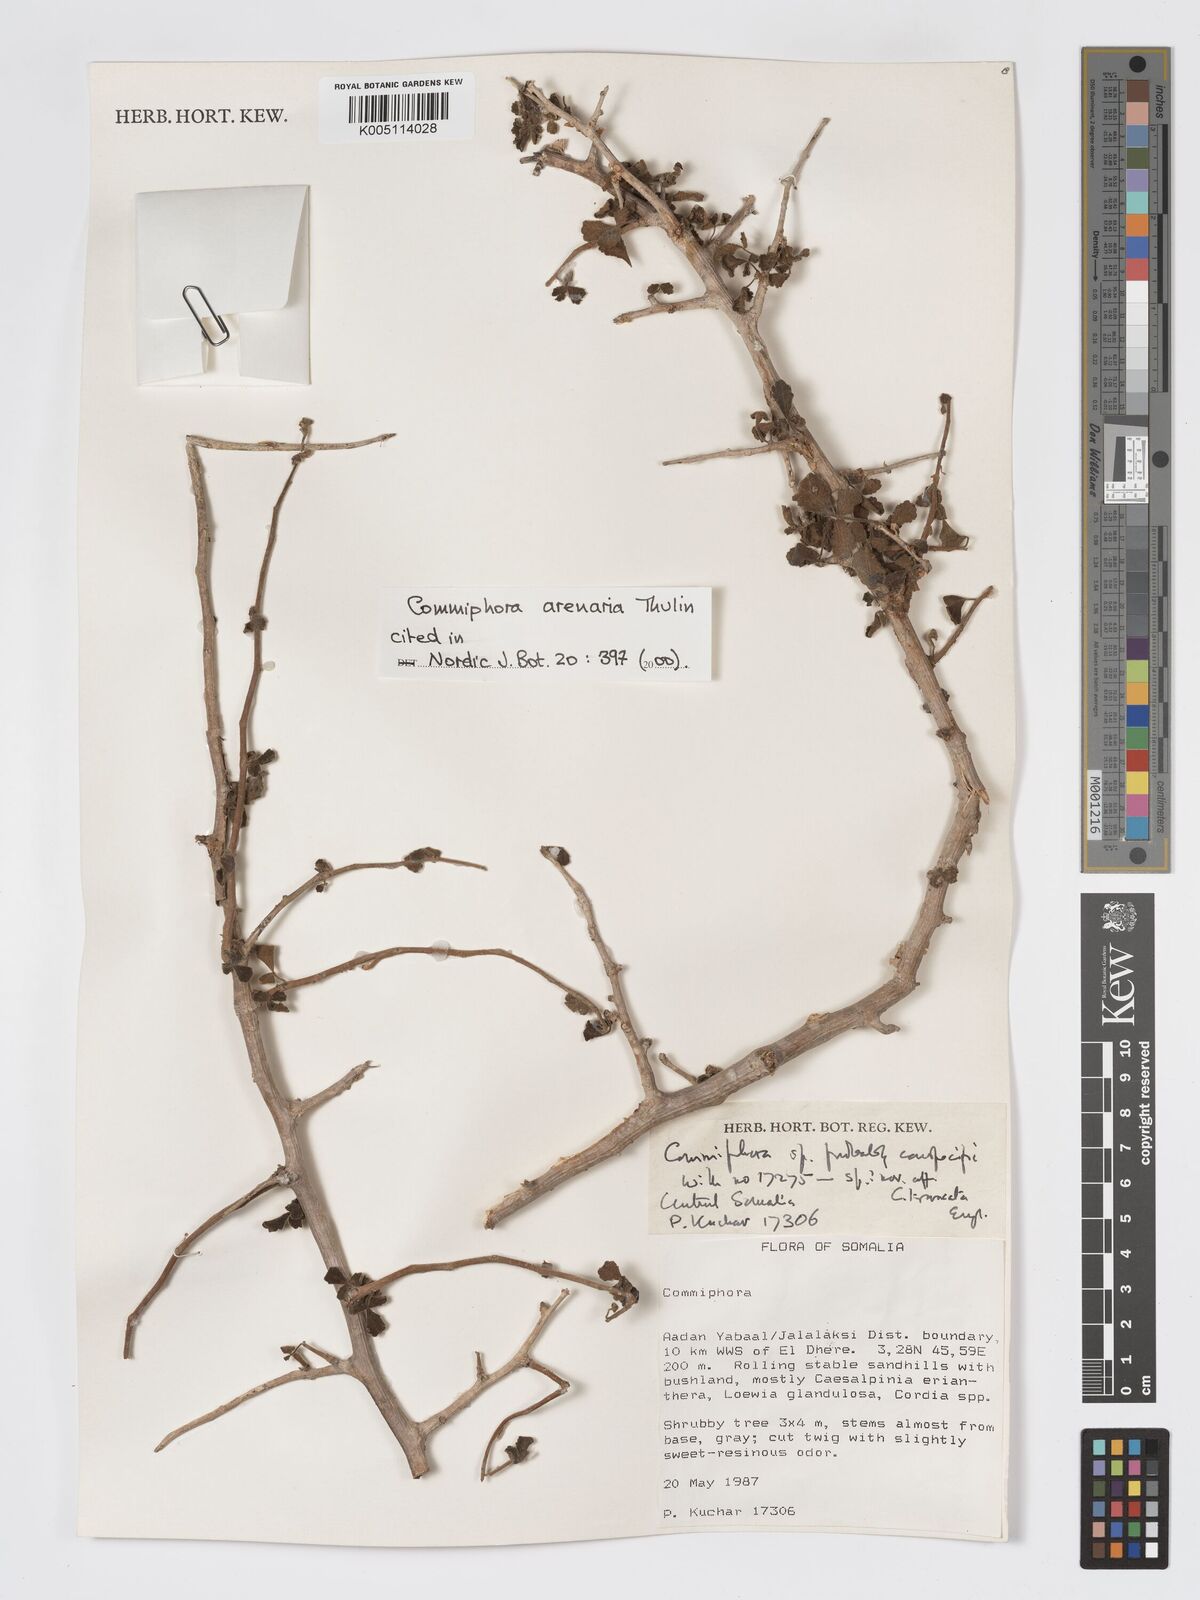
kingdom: Plantae
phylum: Tracheophyta
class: Magnoliopsida
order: Sapindales
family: Burseraceae
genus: Commiphora
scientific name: Commiphora arenaria
